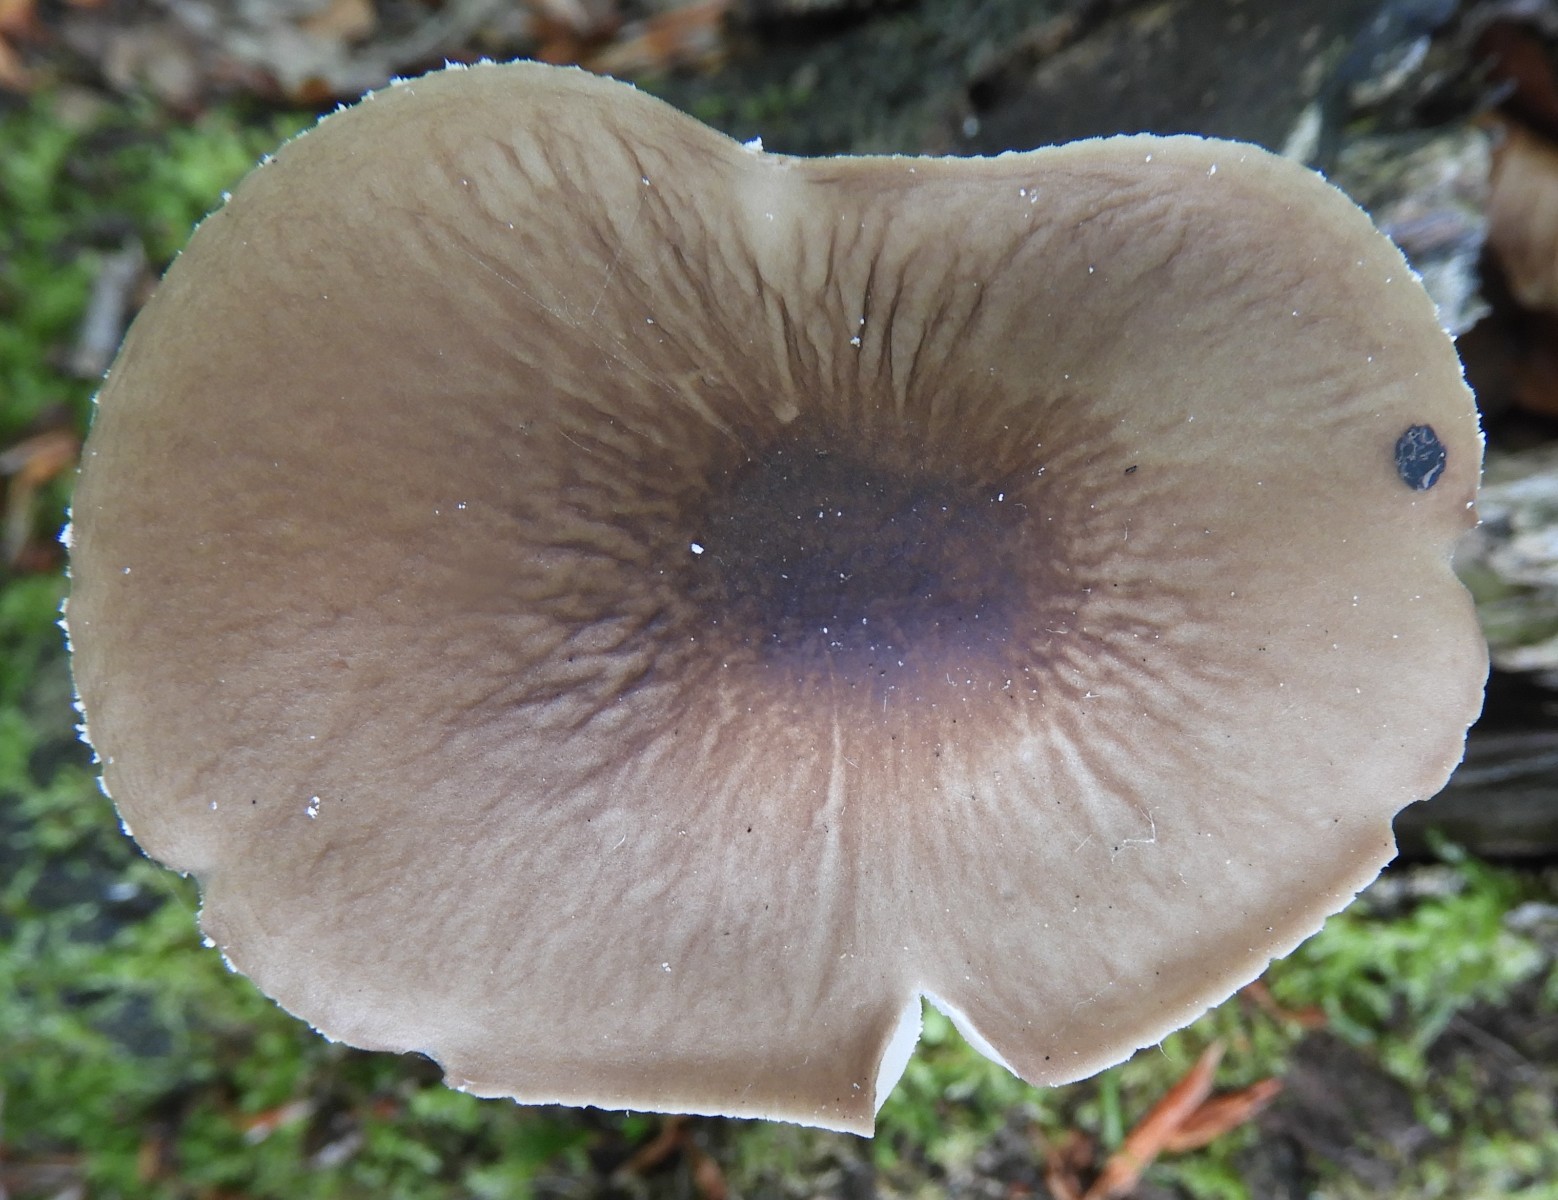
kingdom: Fungi
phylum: Basidiomycota
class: Agaricomycetes
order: Agaricales
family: Physalacriaceae
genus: Hymenopellis
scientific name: Hymenopellis radicata
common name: almindelig pælerodshat
